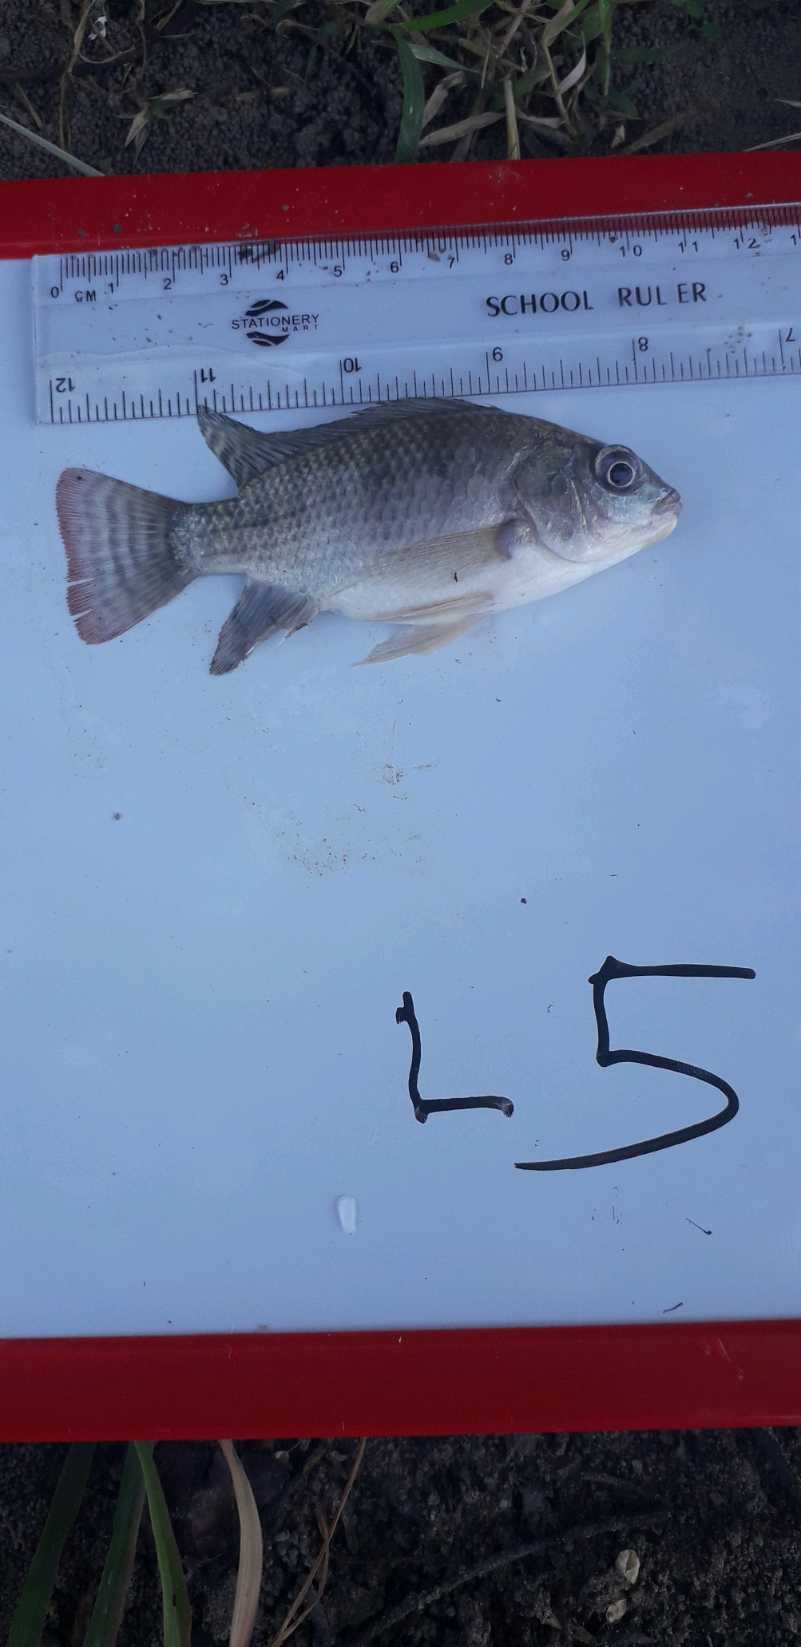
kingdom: Animalia
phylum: Chordata
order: Perciformes
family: Cichlidae
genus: Oreochromis
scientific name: Oreochromis niloticus
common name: Nile tilapia
